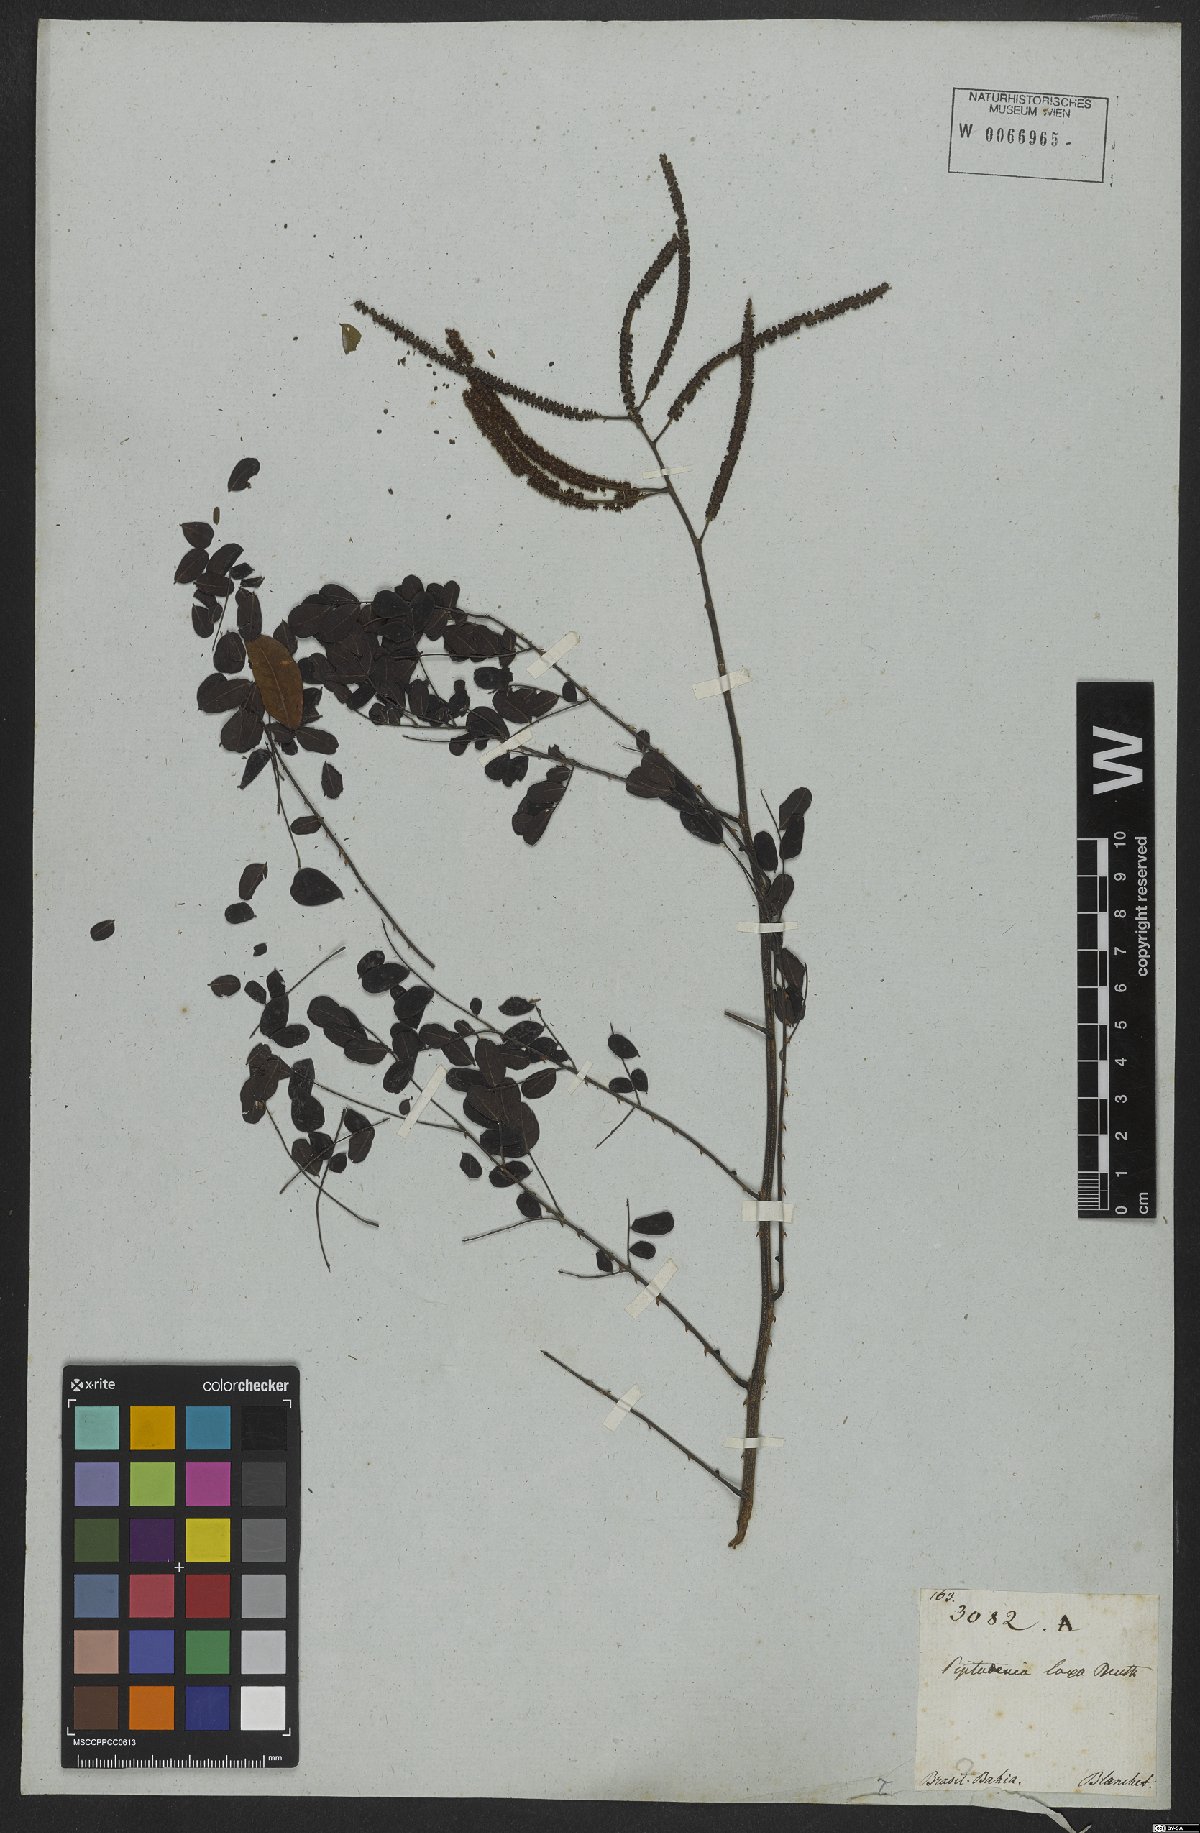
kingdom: Plantae
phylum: Tracheophyta
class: Magnoliopsida
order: Fabales
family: Fabaceae
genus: Piptadenia
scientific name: Piptadenia adiantoides
